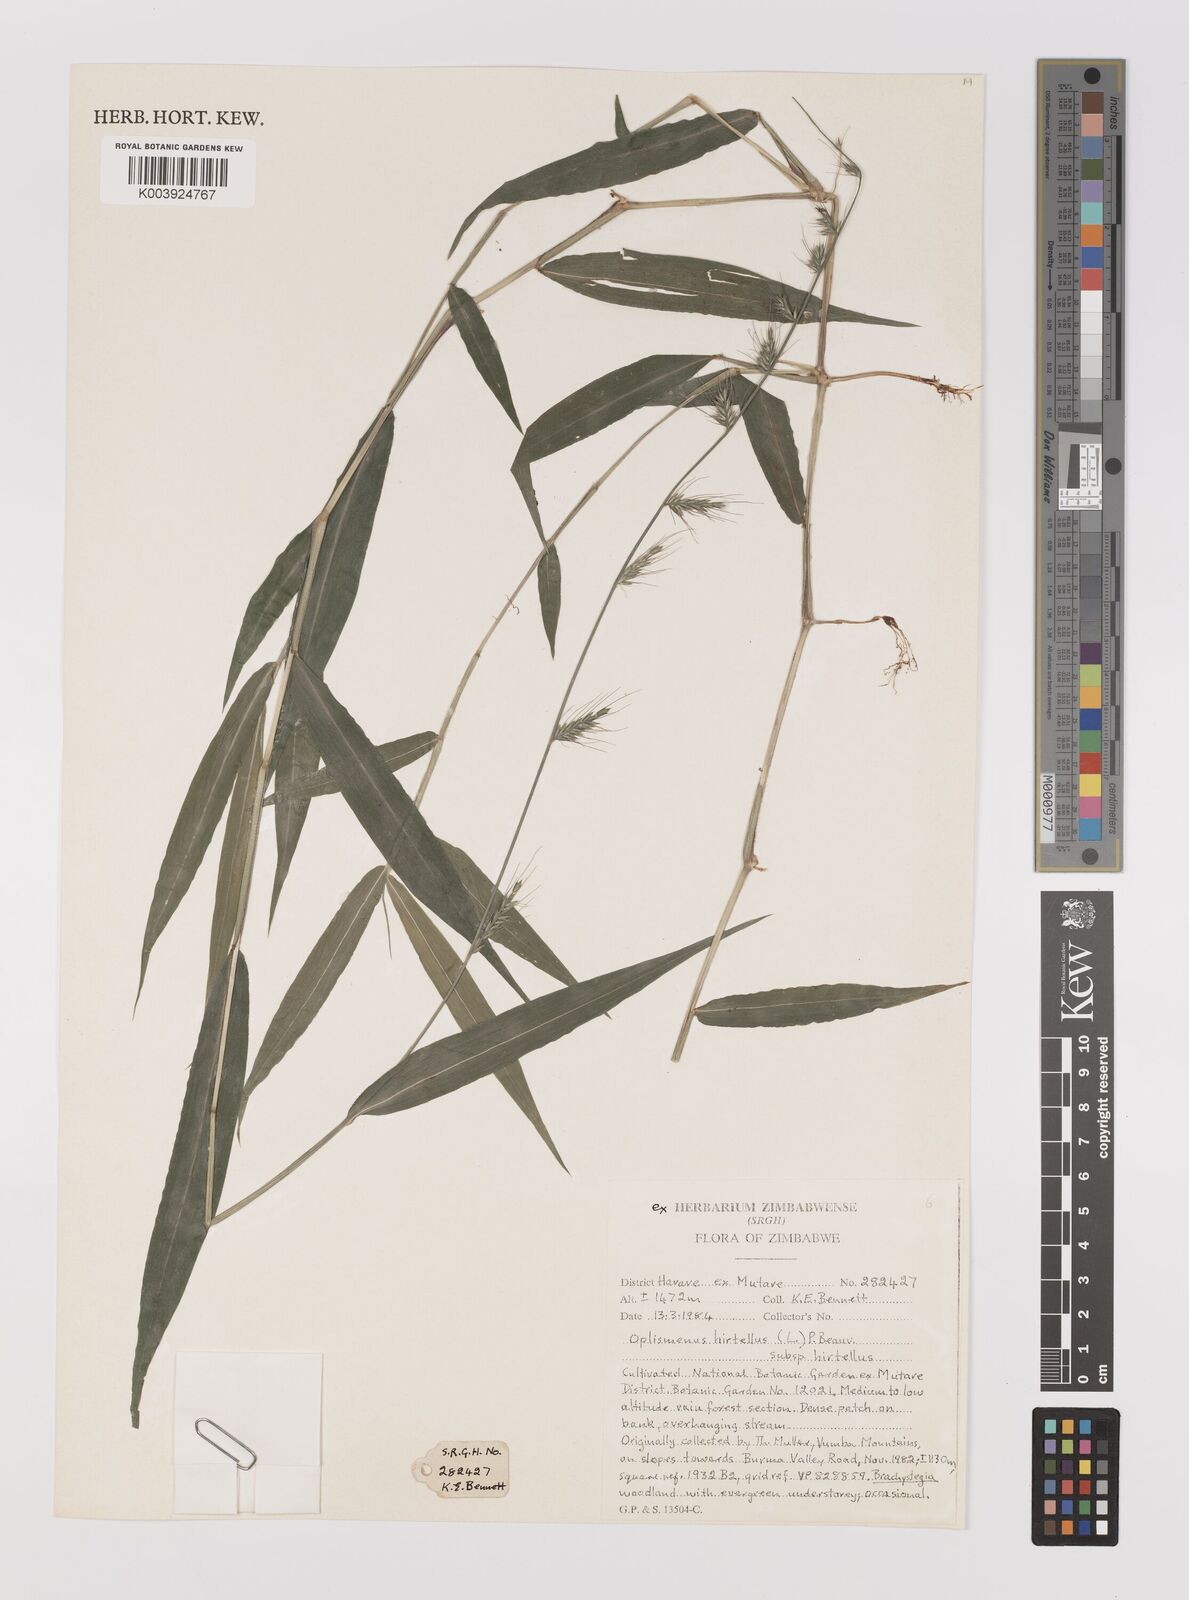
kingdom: Plantae
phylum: Tracheophyta
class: Liliopsida
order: Poales
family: Poaceae
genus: Oplismenus
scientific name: Oplismenus hirtellus
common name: Basketgrass
